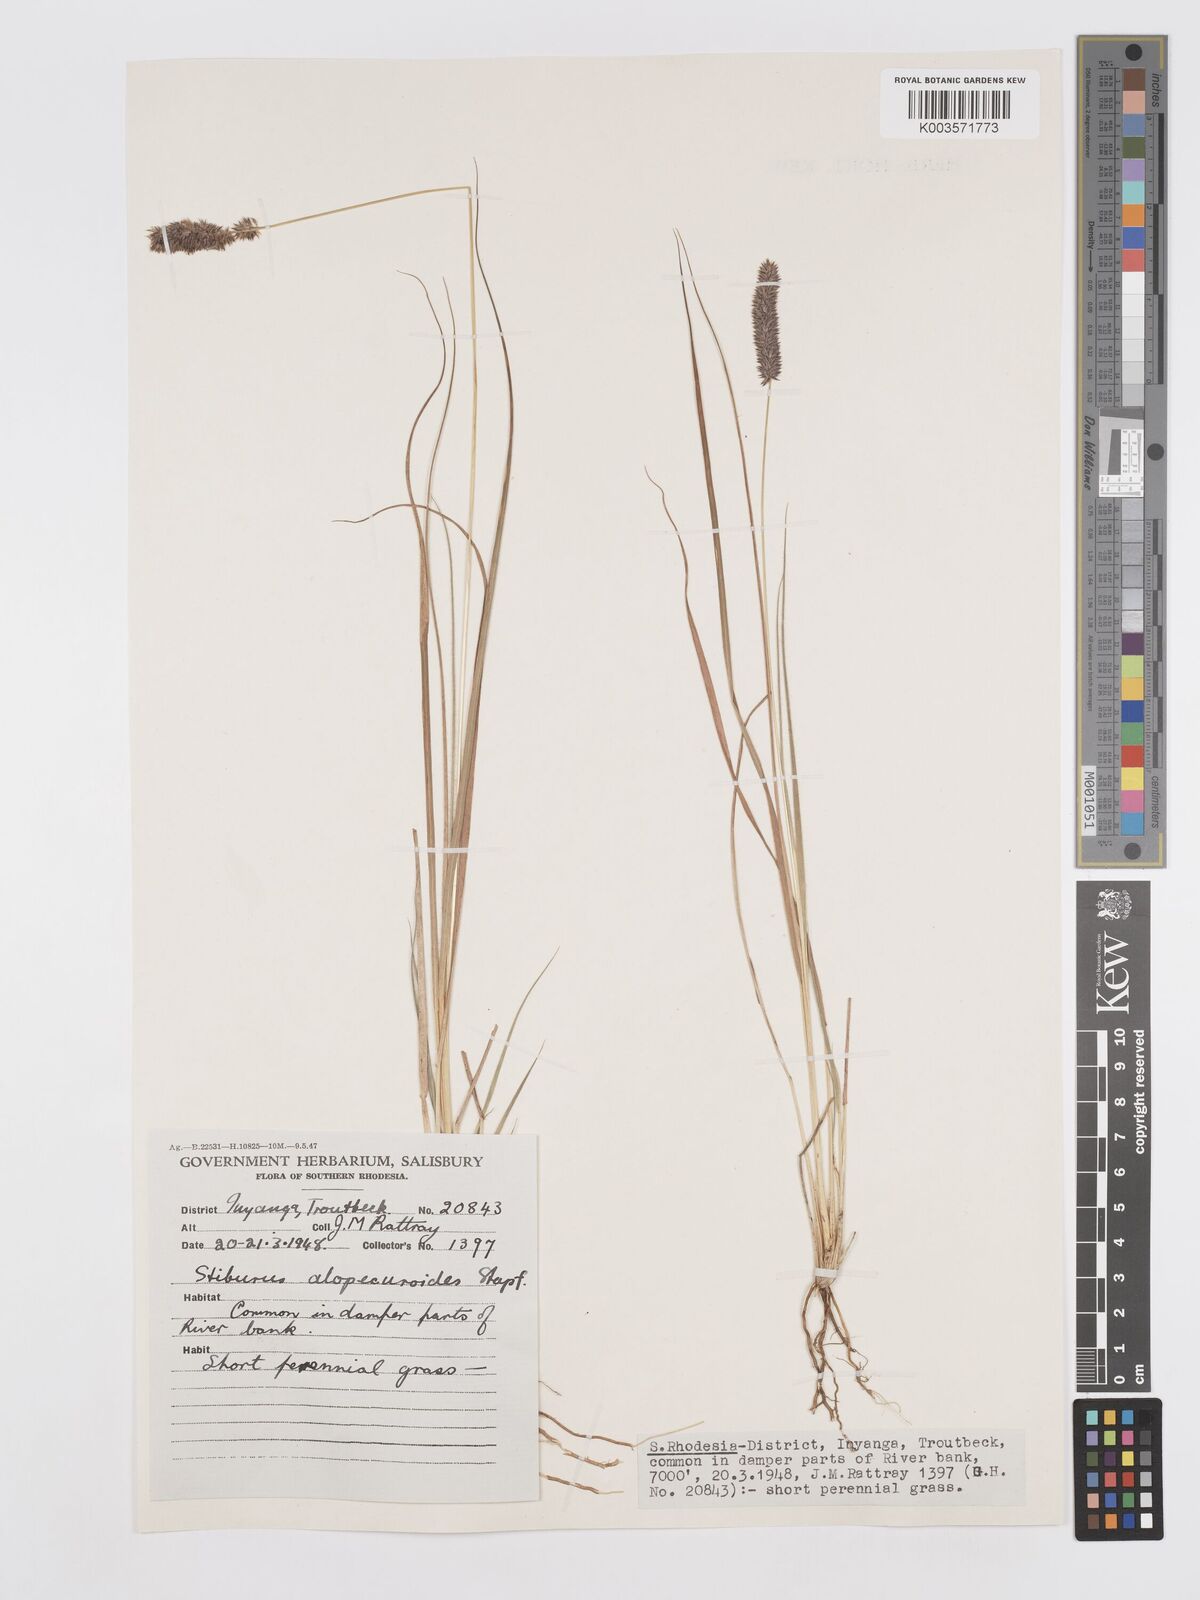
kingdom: Plantae
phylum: Tracheophyta
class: Liliopsida
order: Poales
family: Poaceae
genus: Stiburus
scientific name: Stiburus alopecuroides
